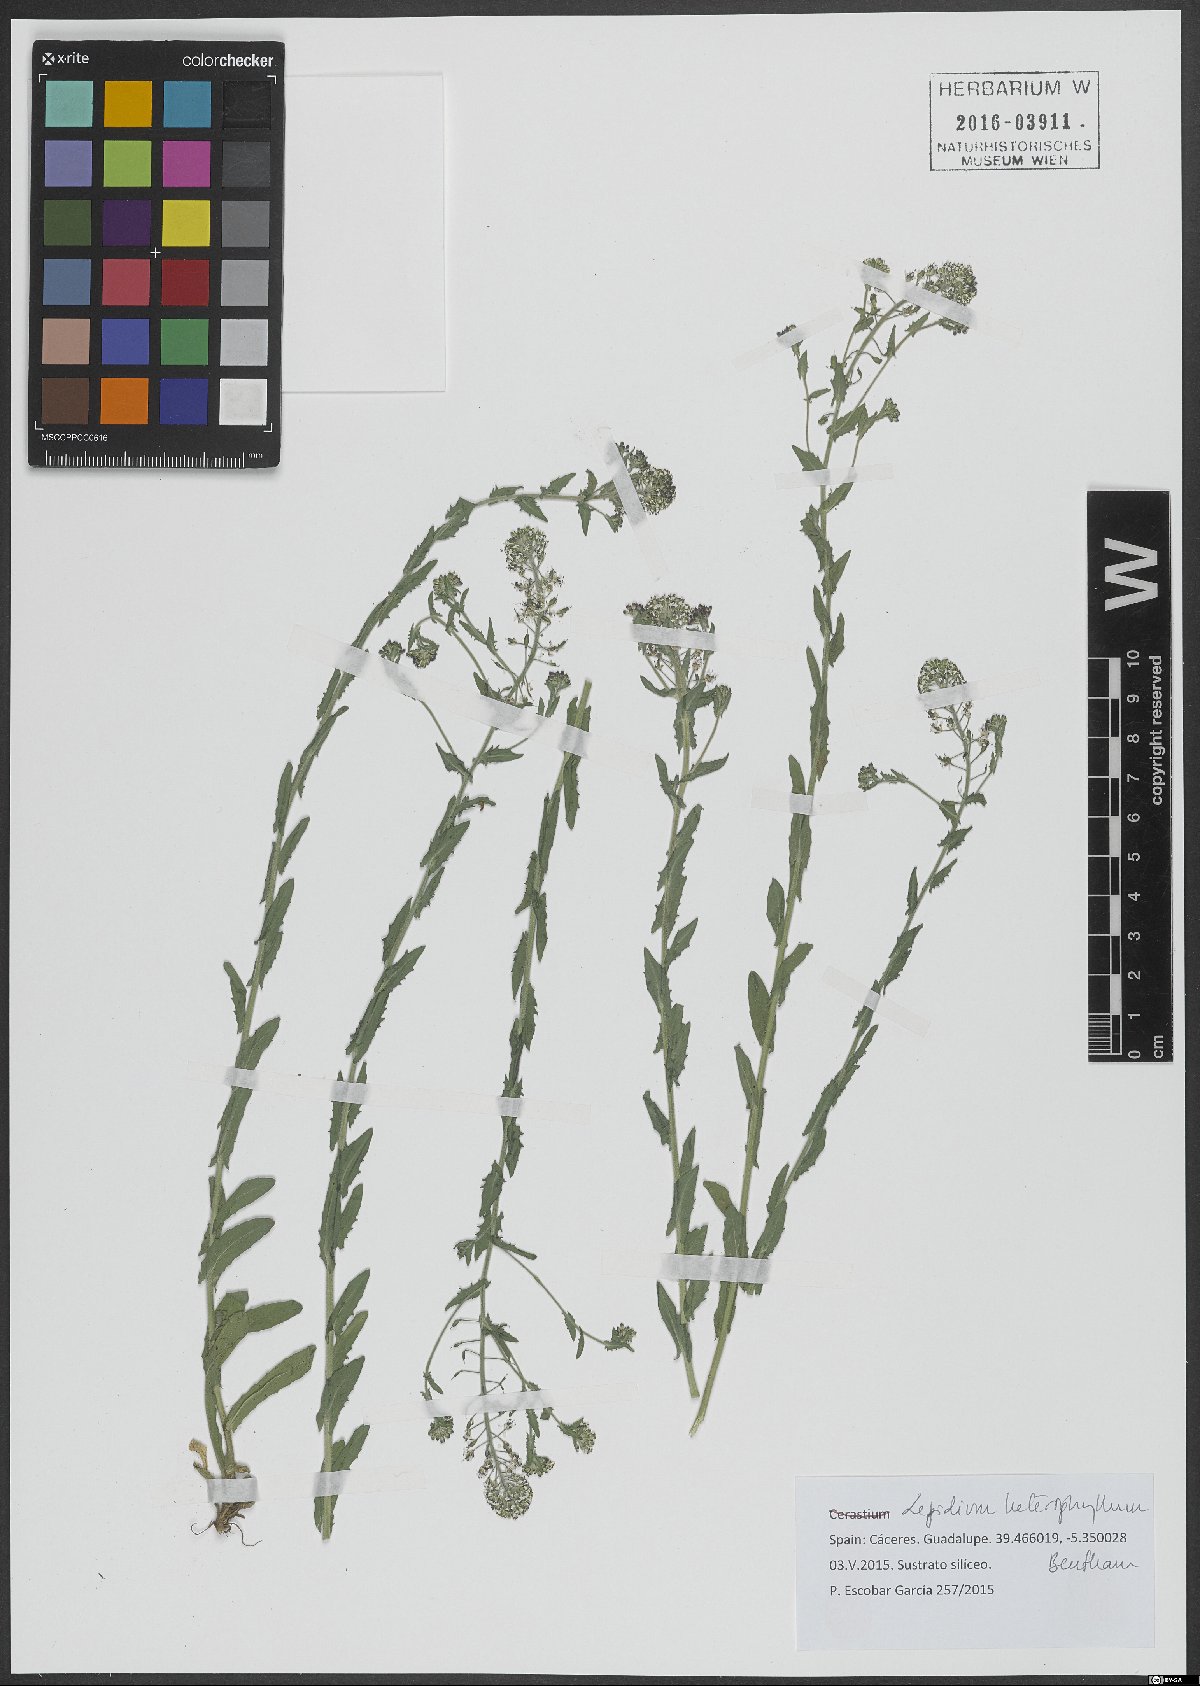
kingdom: Plantae
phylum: Tracheophyta
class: Magnoliopsida
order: Brassicales
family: Brassicaceae
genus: Lepidium
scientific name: Lepidium heterophyllum
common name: Smith's pepperwort
